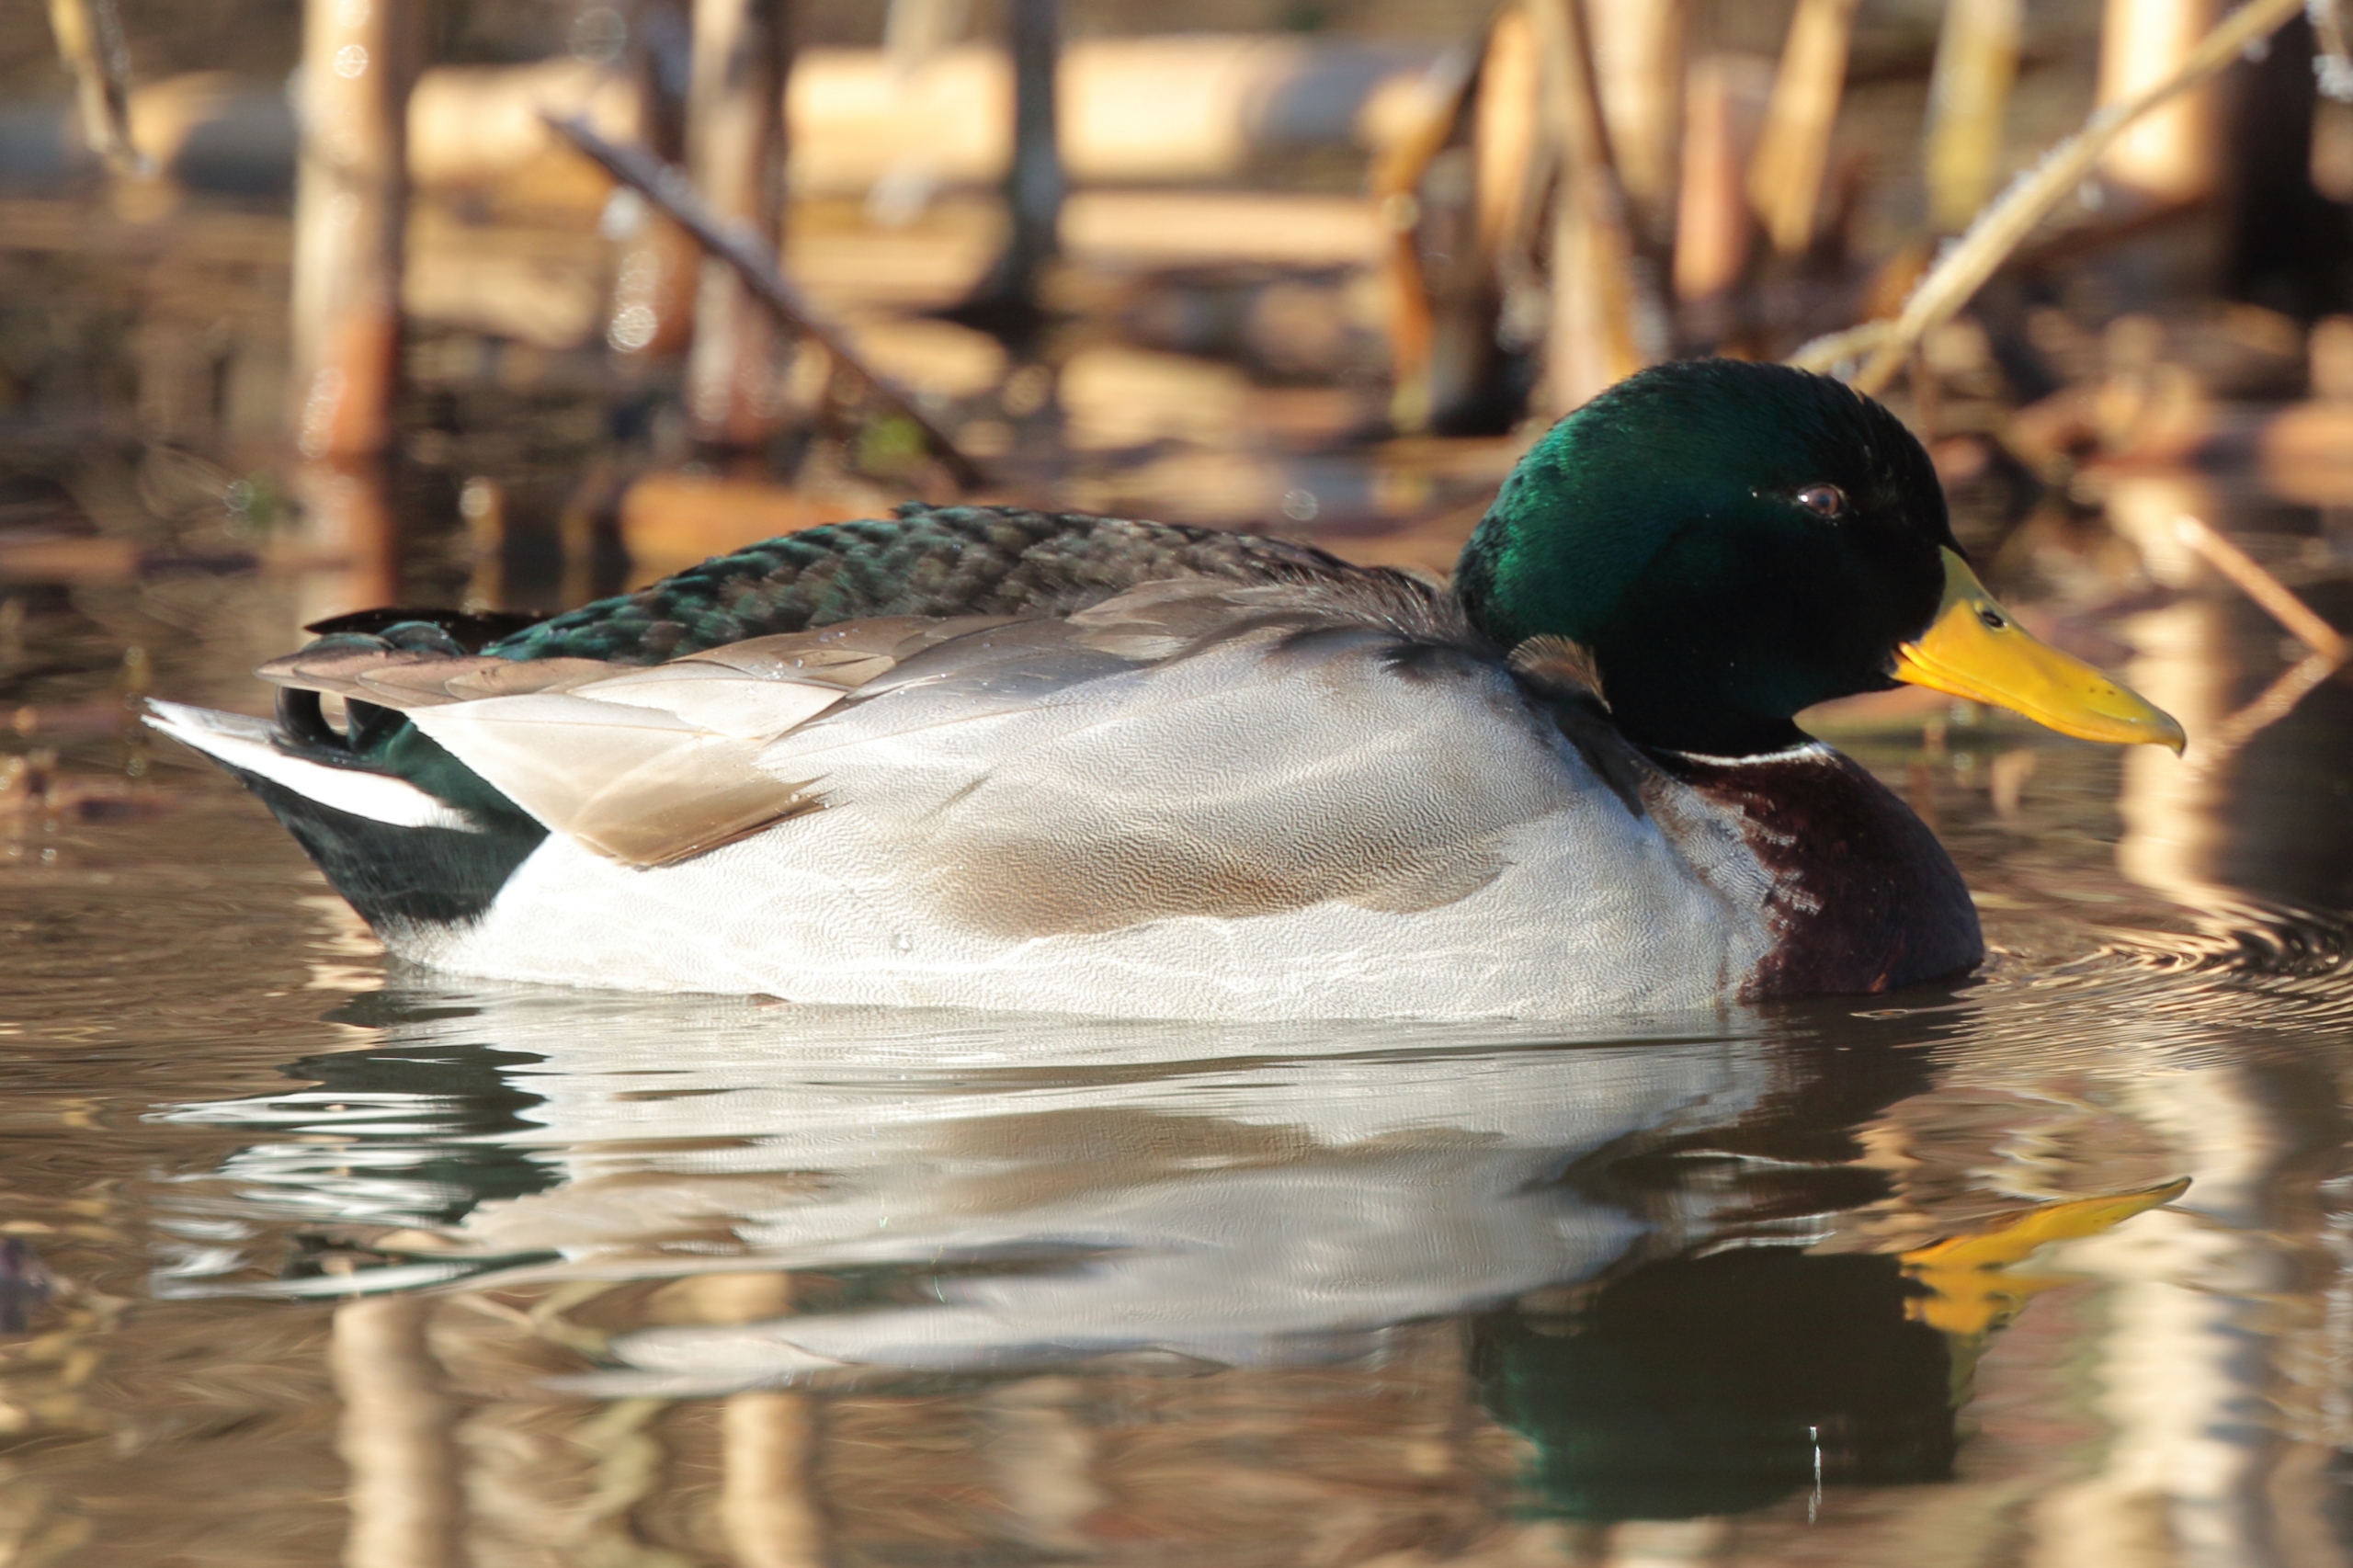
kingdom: Animalia
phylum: Chordata
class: Aves
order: Anseriformes
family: Anatidae
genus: Anas
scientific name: Anas platyrhynchos
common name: Gråand
